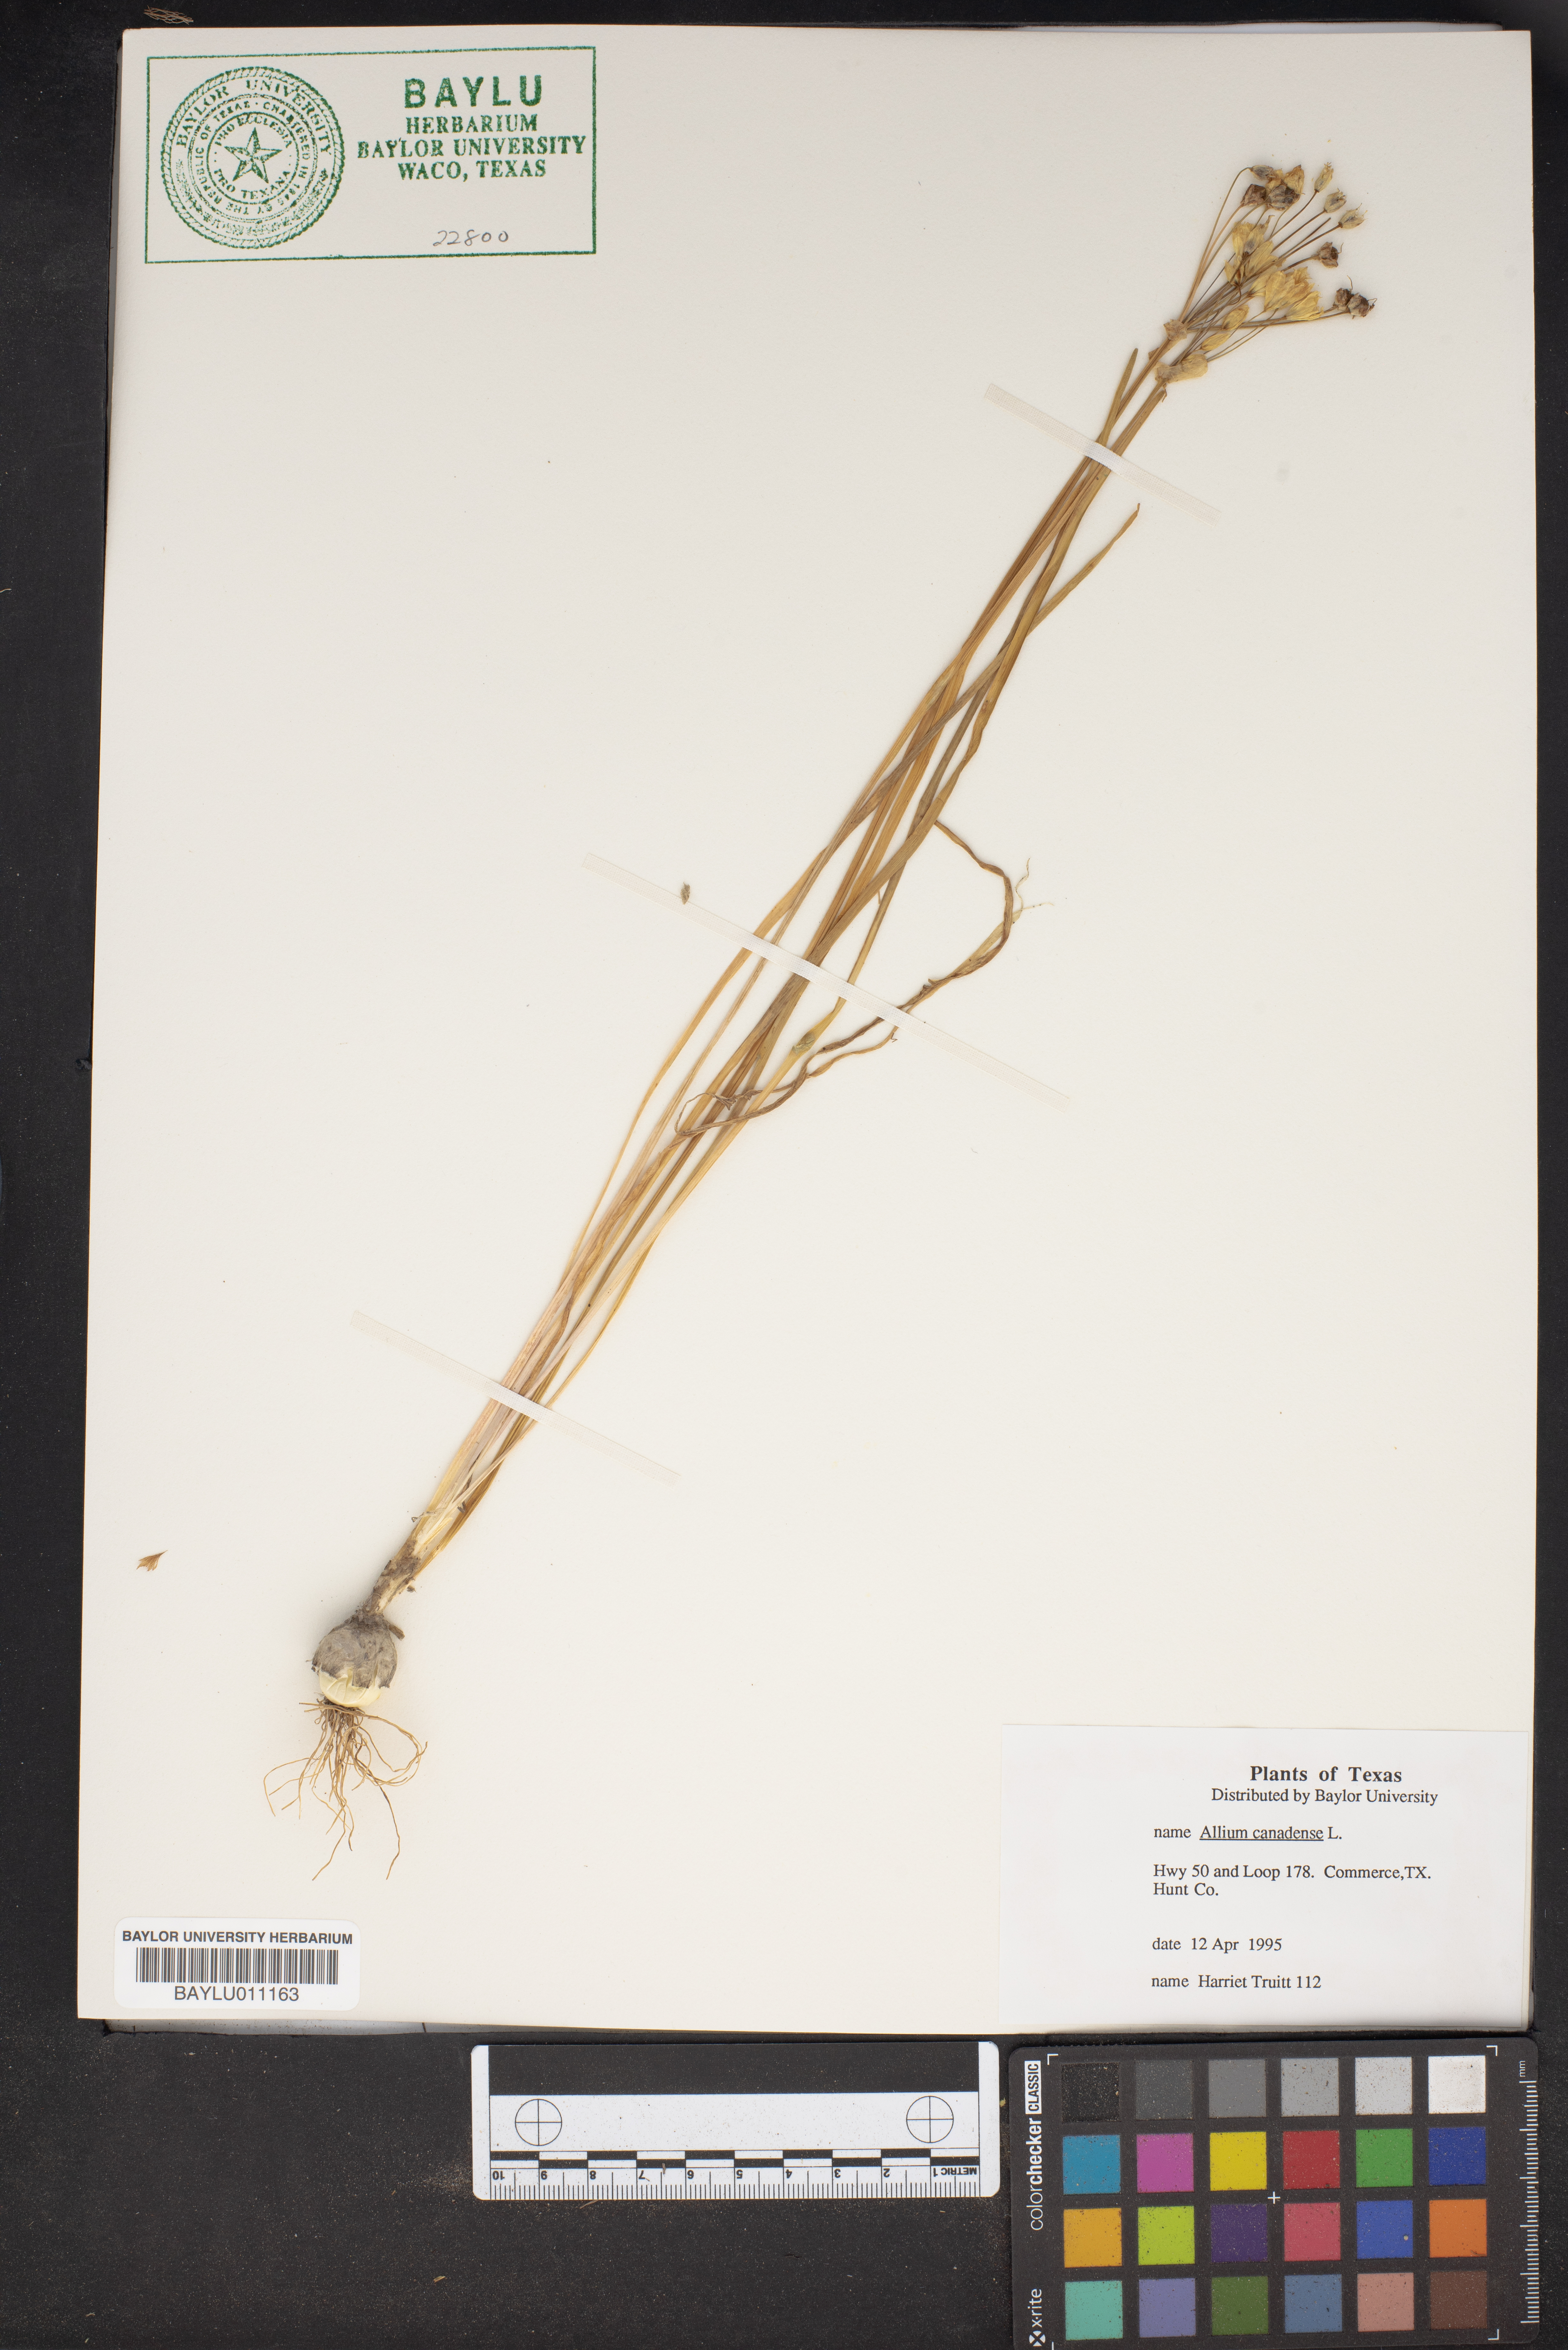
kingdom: Plantae
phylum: Tracheophyta
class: Liliopsida
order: Asparagales
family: Amaryllidaceae
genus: Allium
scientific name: Allium canadense
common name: Meadow garlic
